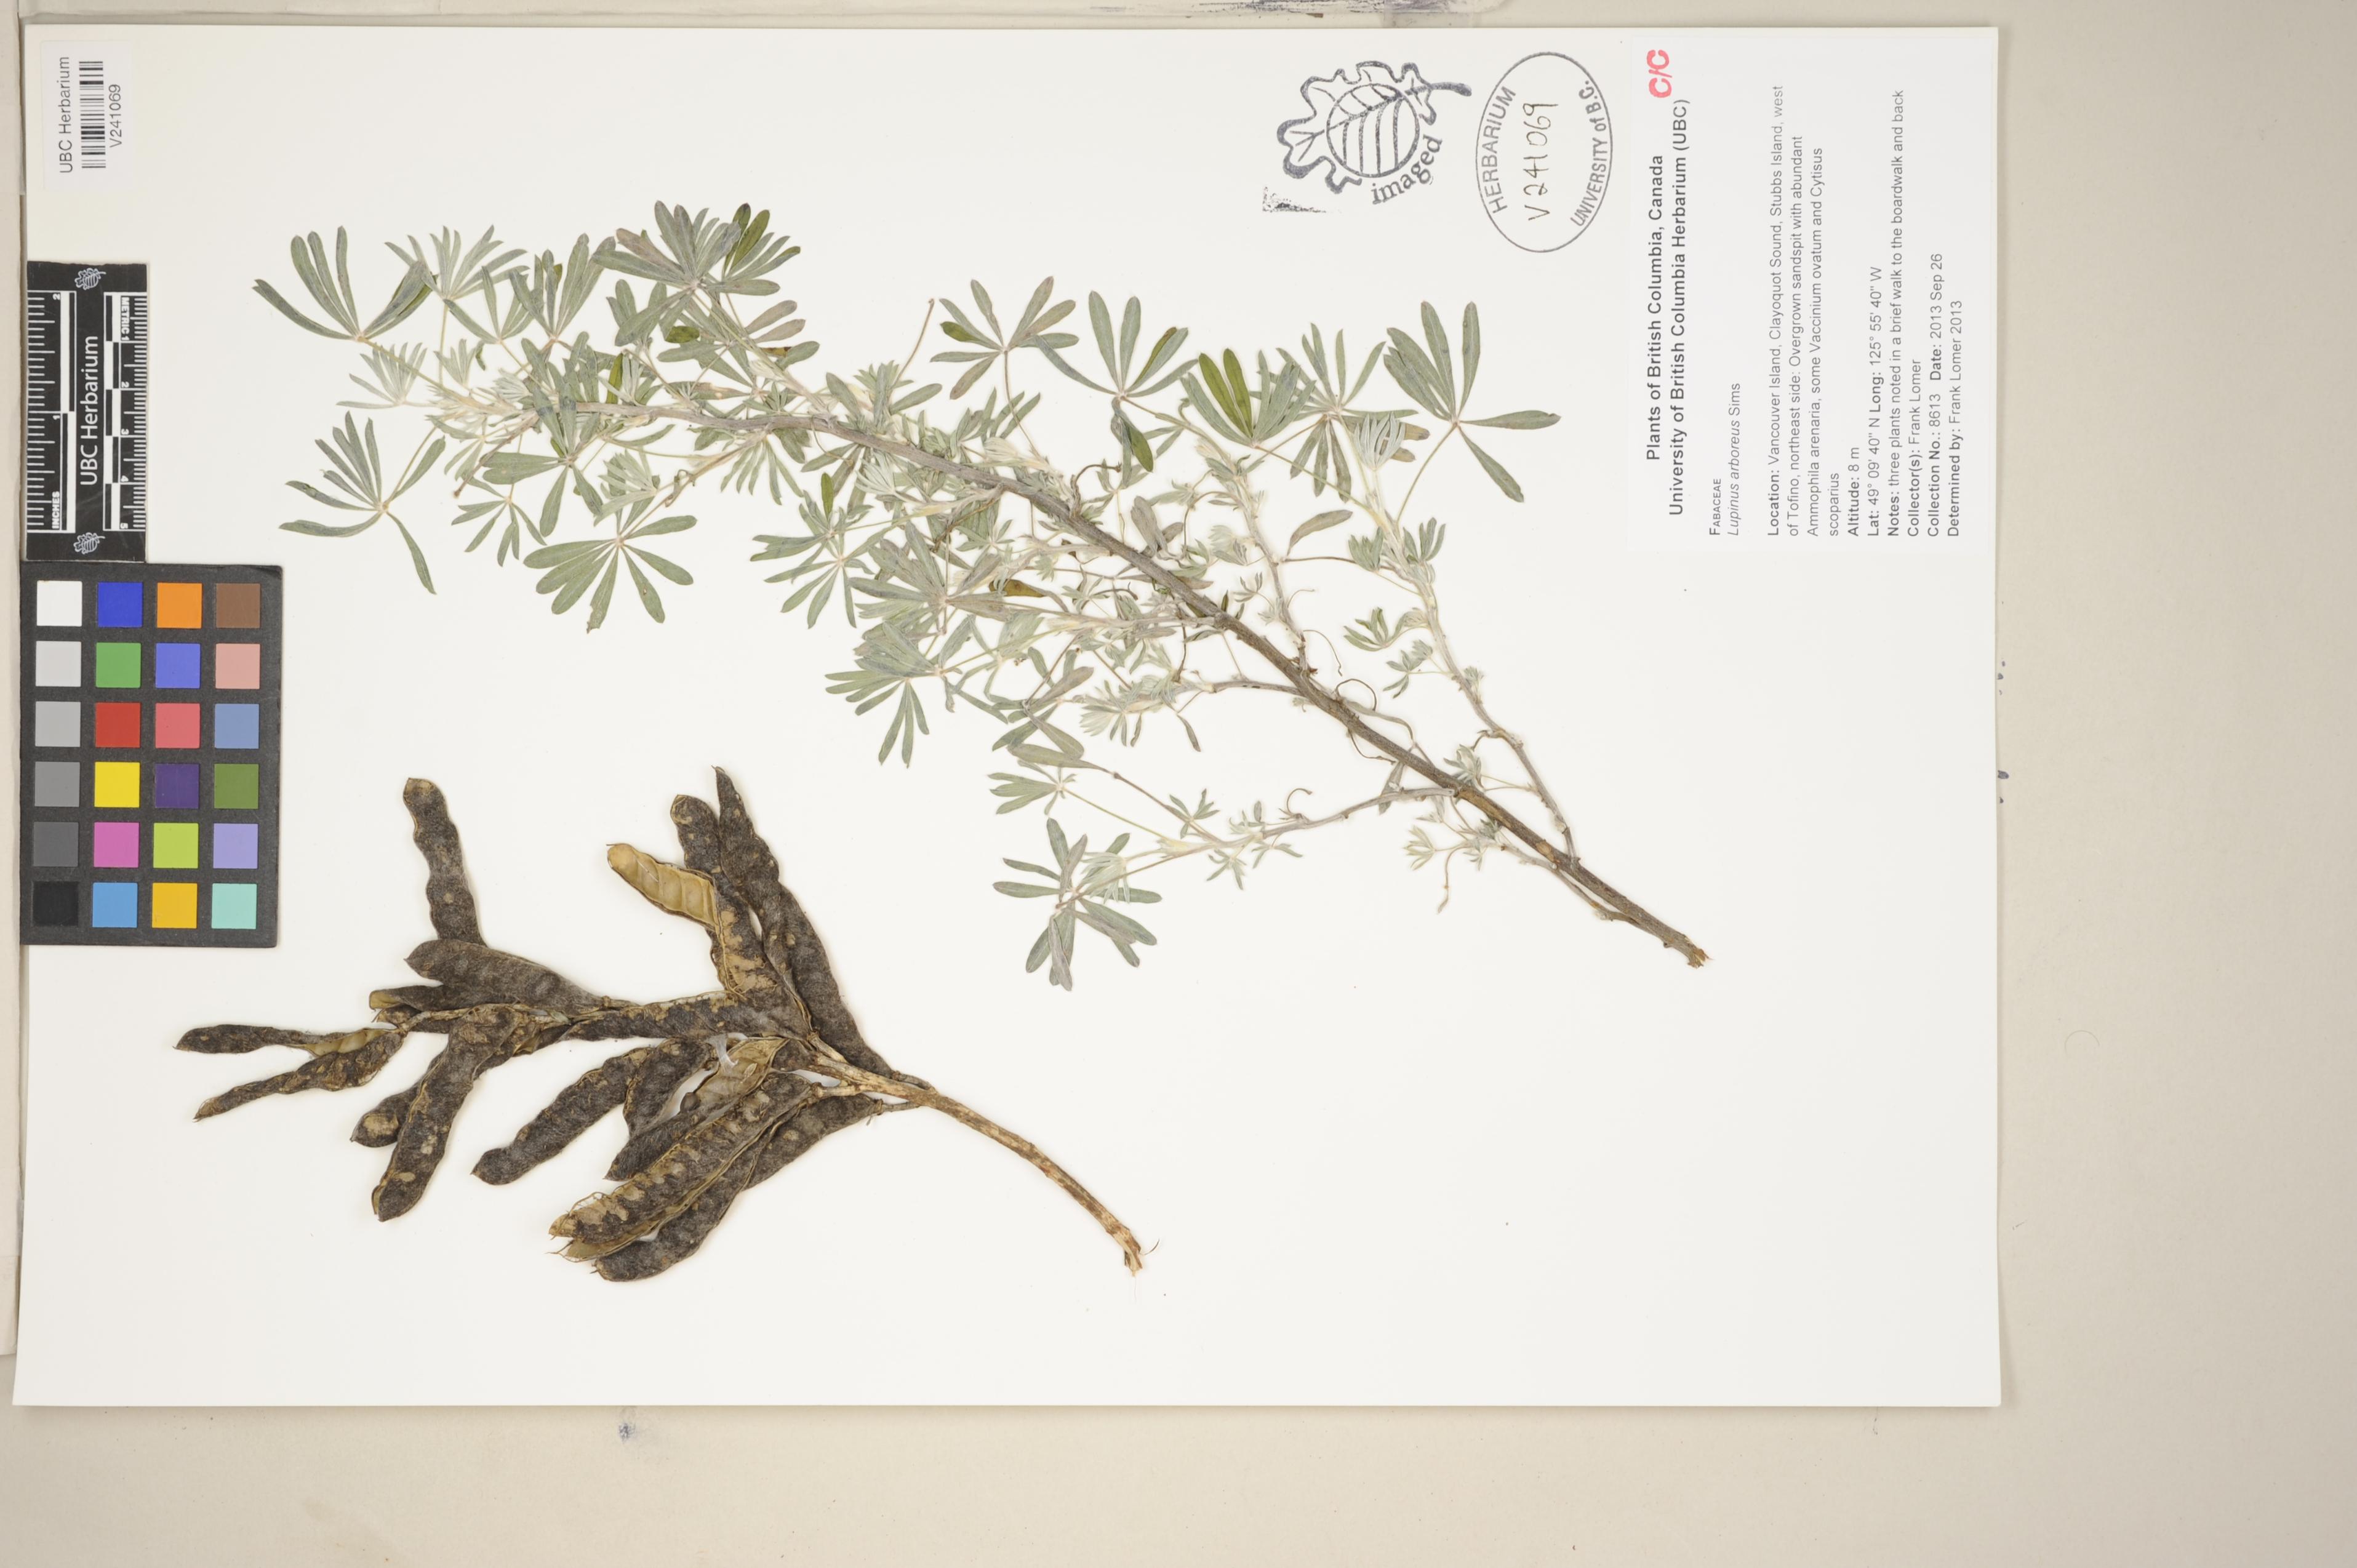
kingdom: Plantae
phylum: Tracheophyta
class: Magnoliopsida
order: Fabales
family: Fabaceae
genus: Lupinus
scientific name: Lupinus arboreus
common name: Yellow bush lupine
